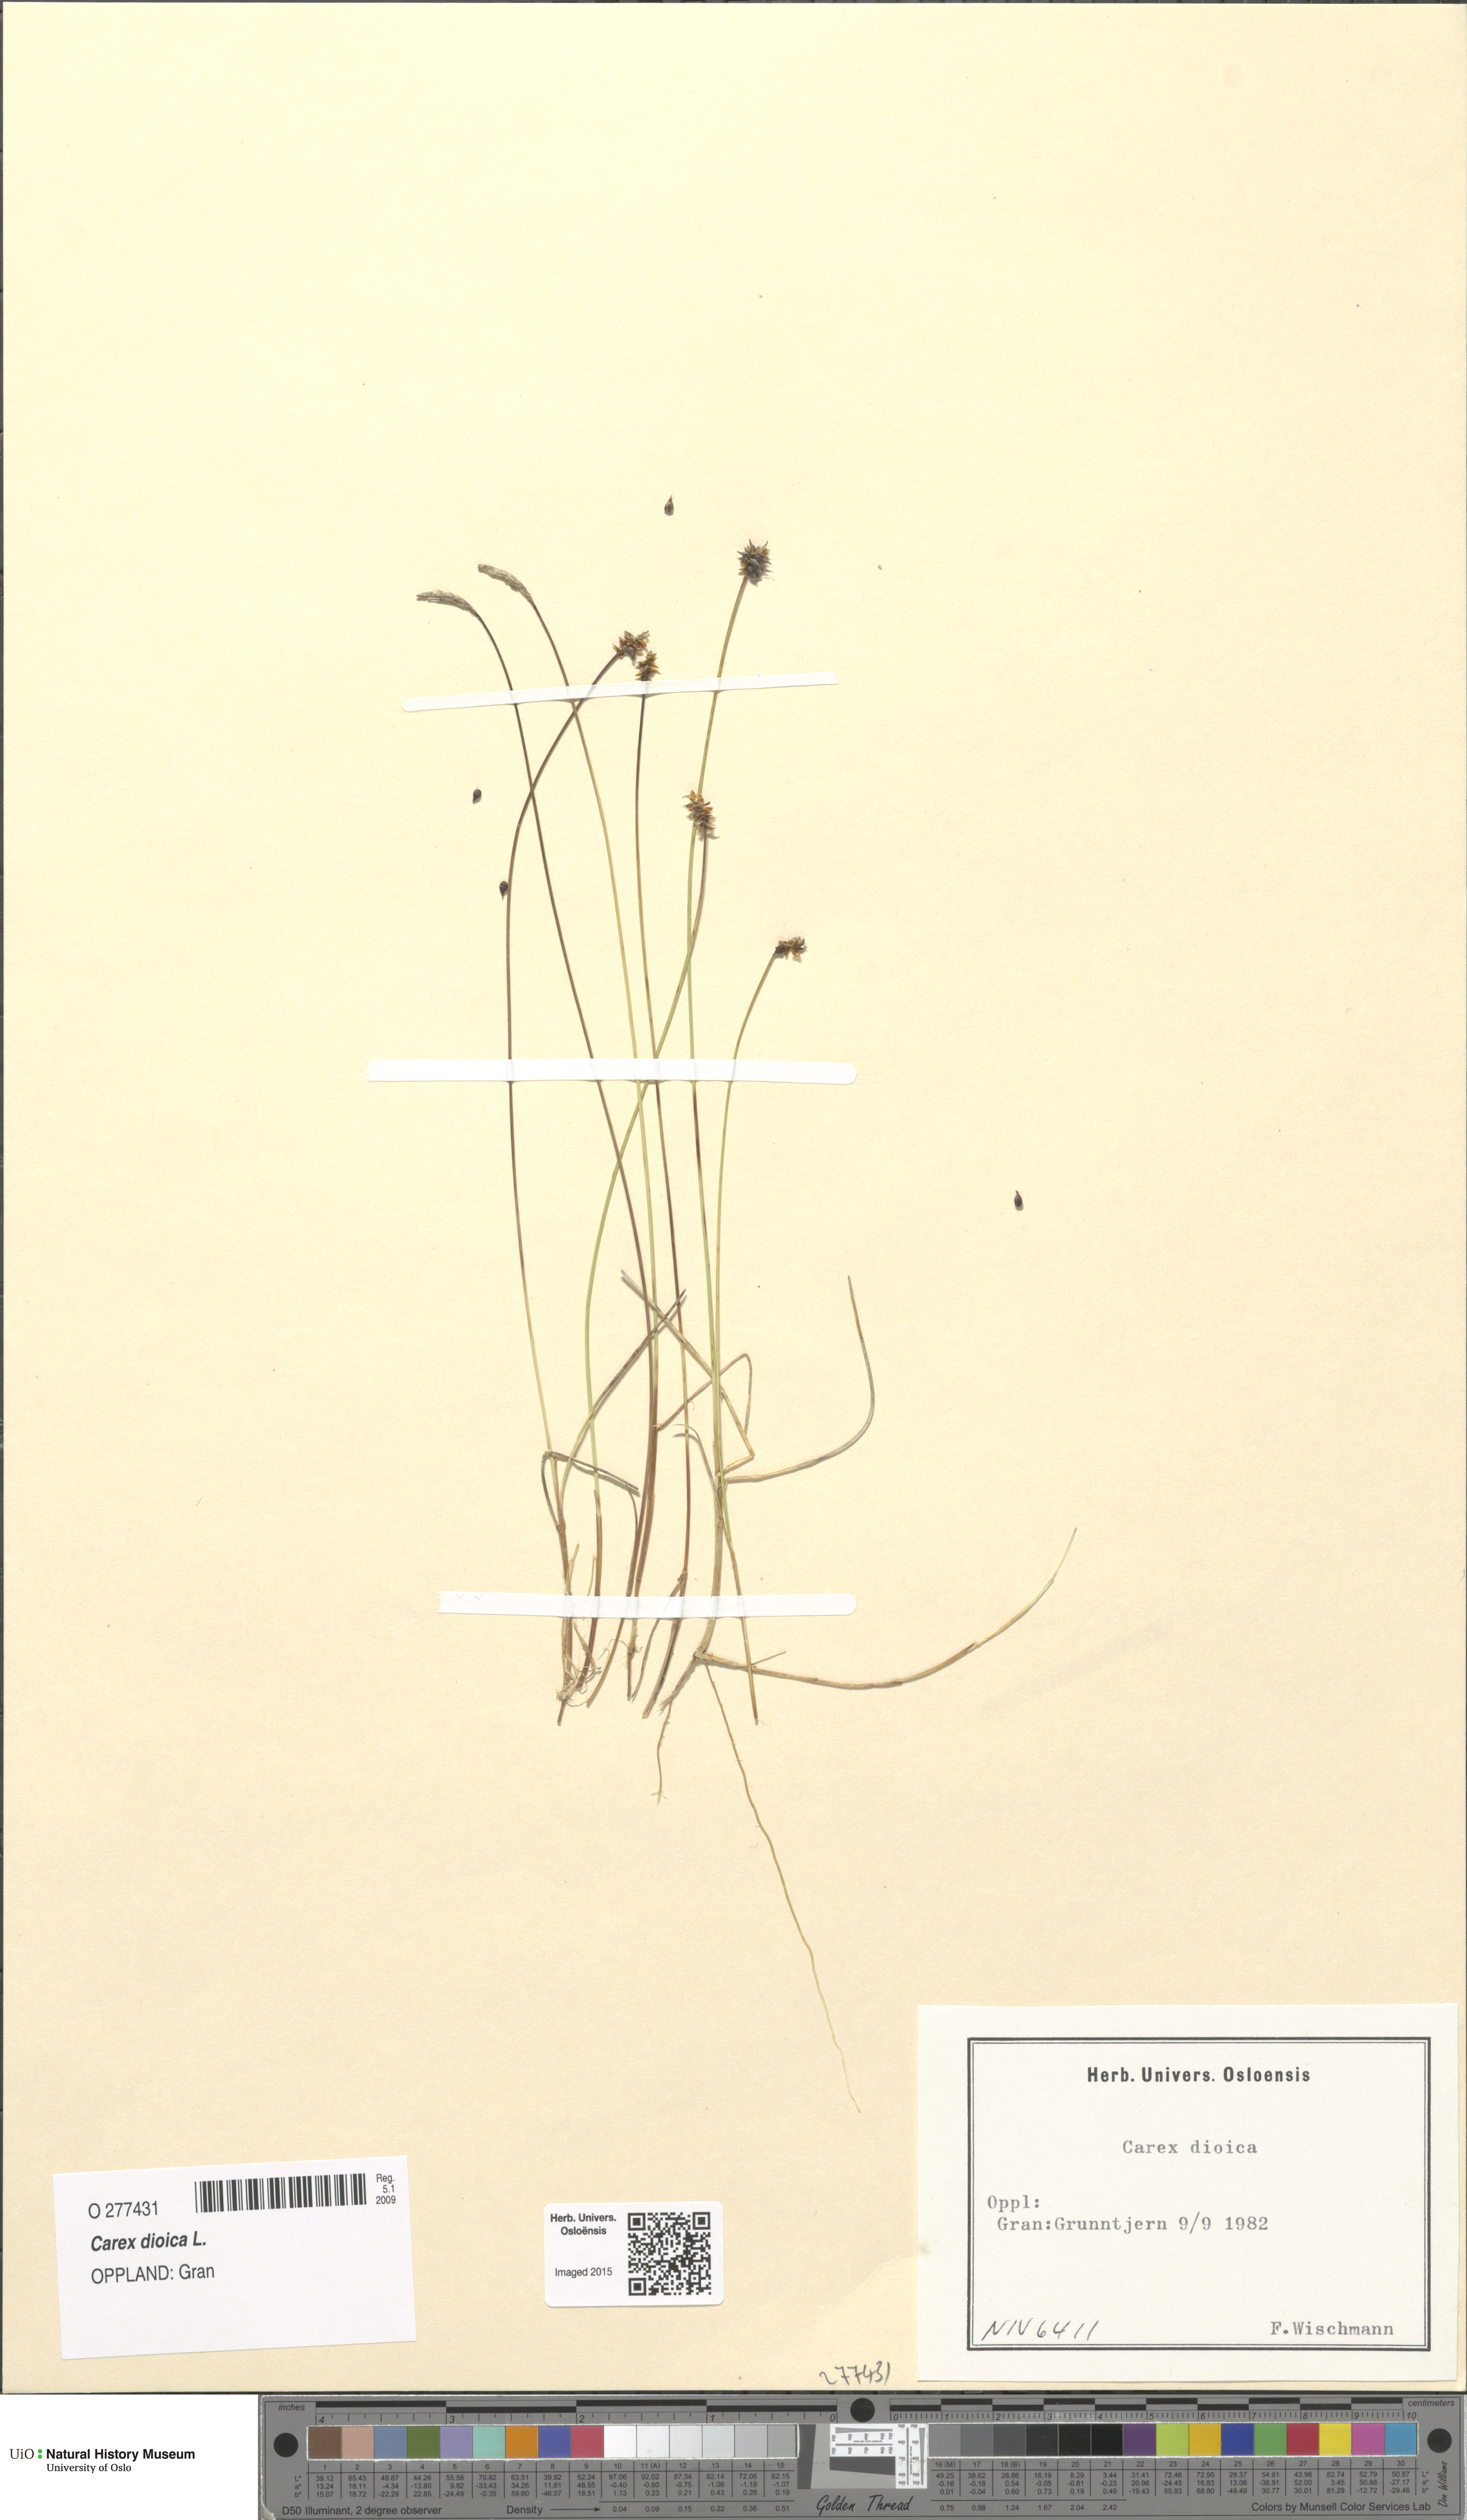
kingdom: Plantae
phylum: Tracheophyta
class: Liliopsida
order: Poales
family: Cyperaceae
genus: Carex
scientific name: Carex dioica
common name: Dioecious sedge
